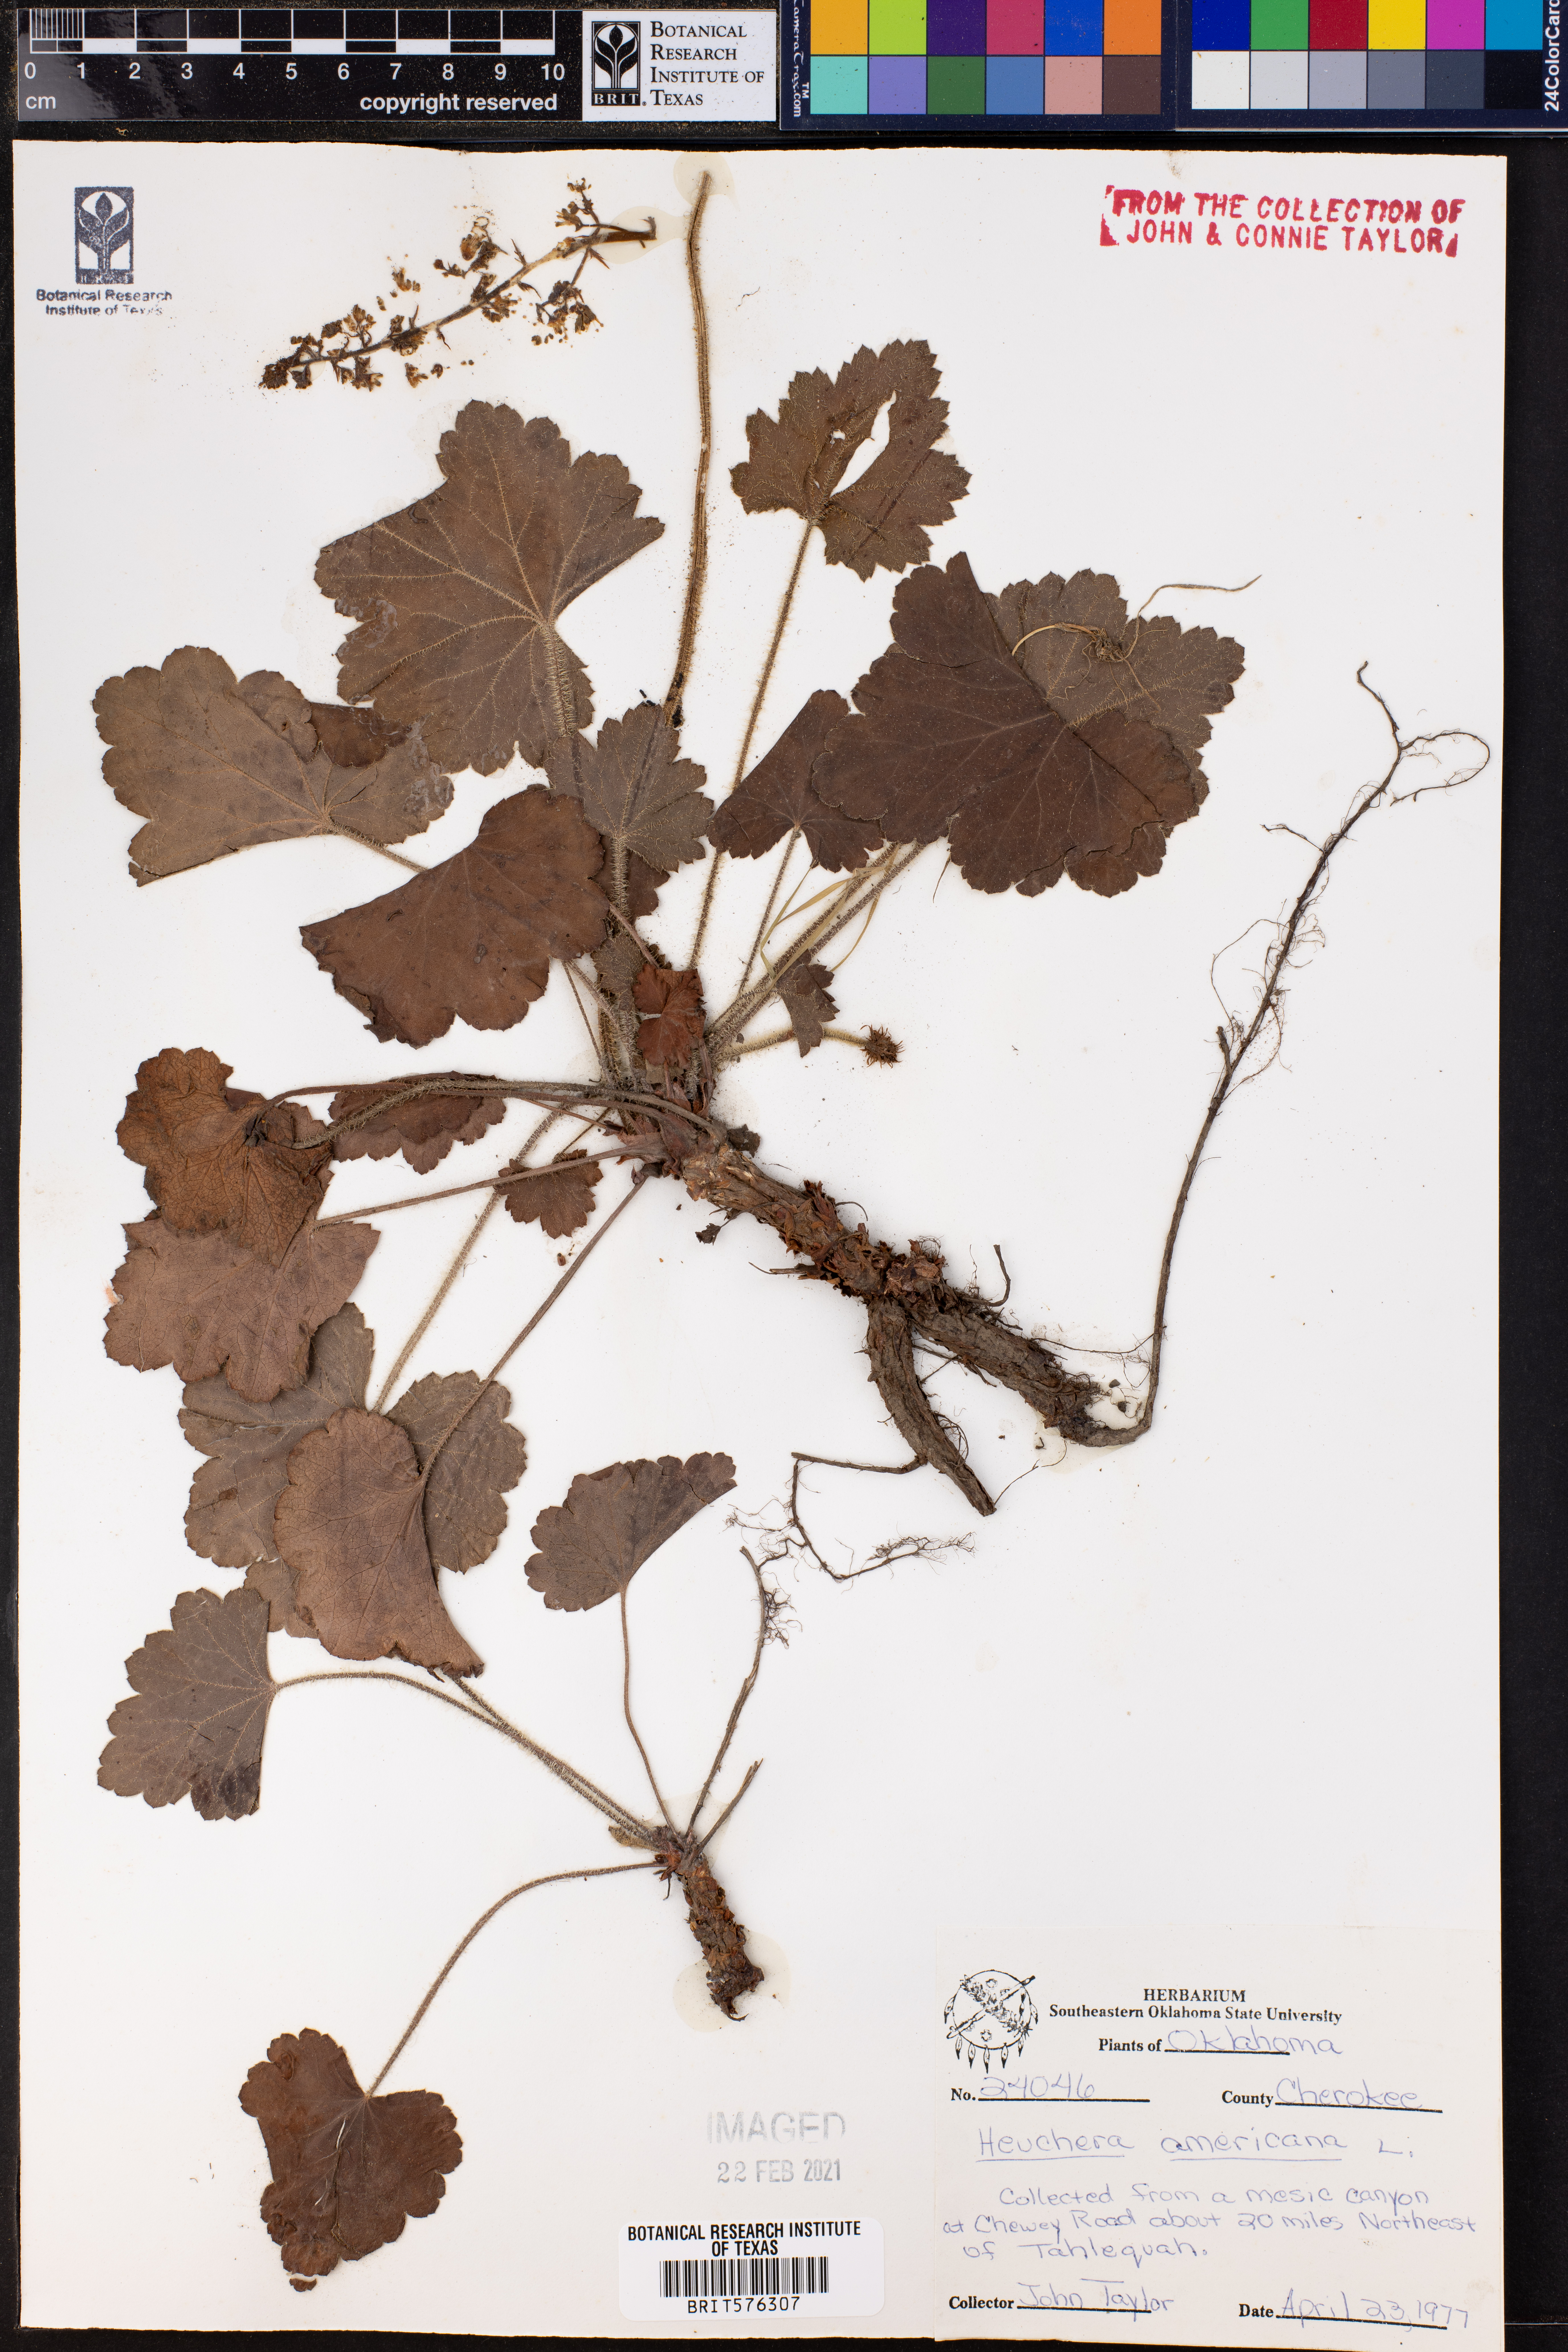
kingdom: Plantae
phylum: Tracheophyta
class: Magnoliopsida
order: Saxifragales
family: Saxifragaceae
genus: Heuchera
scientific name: Heuchera americana
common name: Alumroot
